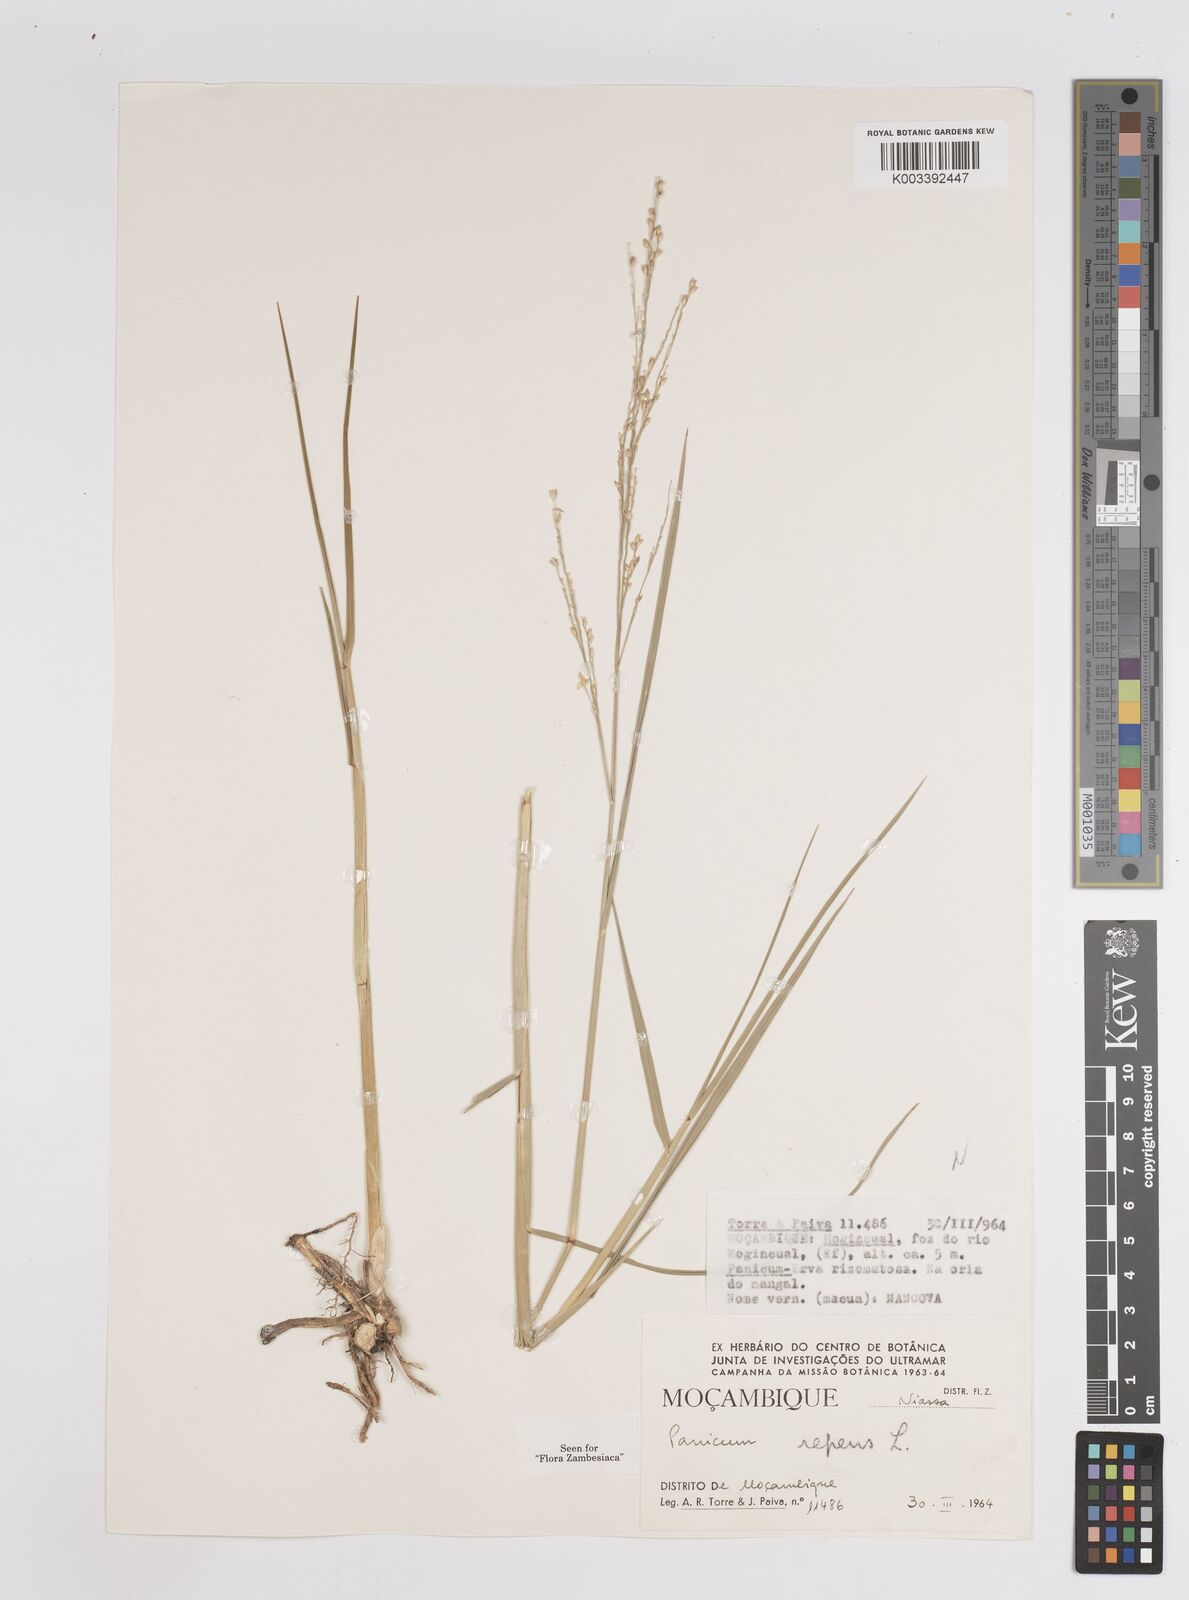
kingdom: Plantae
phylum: Tracheophyta
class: Liliopsida
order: Poales
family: Poaceae
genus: Panicum
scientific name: Panicum repens
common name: Torpedo grass
